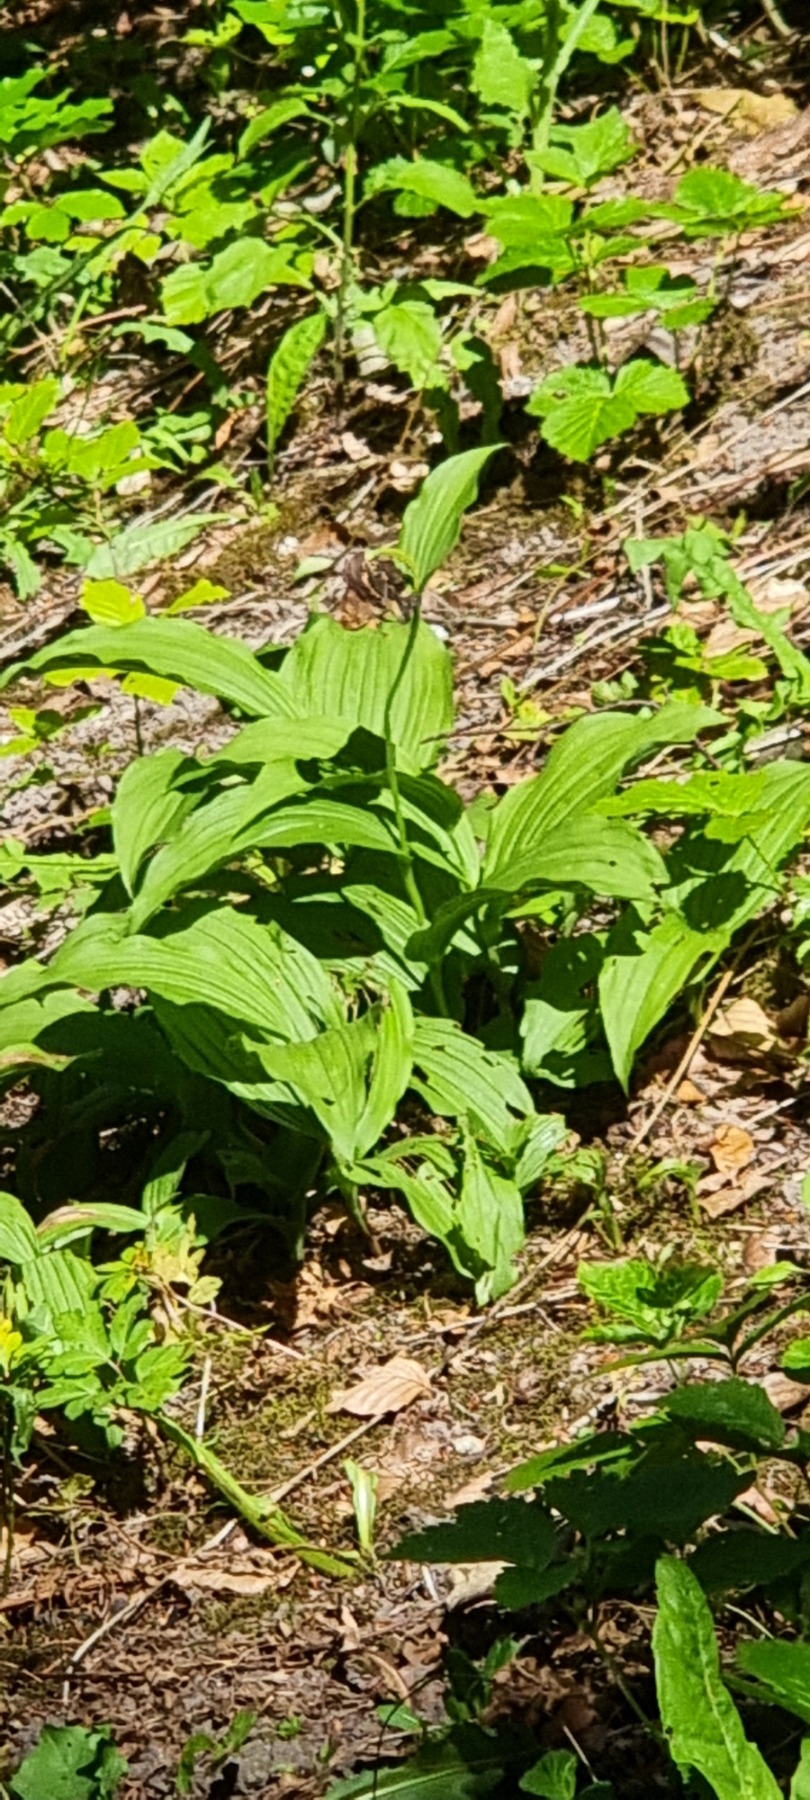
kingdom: Plantae
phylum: Tracheophyta
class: Liliopsida
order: Asparagales
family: Orchidaceae
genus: Cypripedium
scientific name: Cypripedium calceolus
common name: Fruesko
